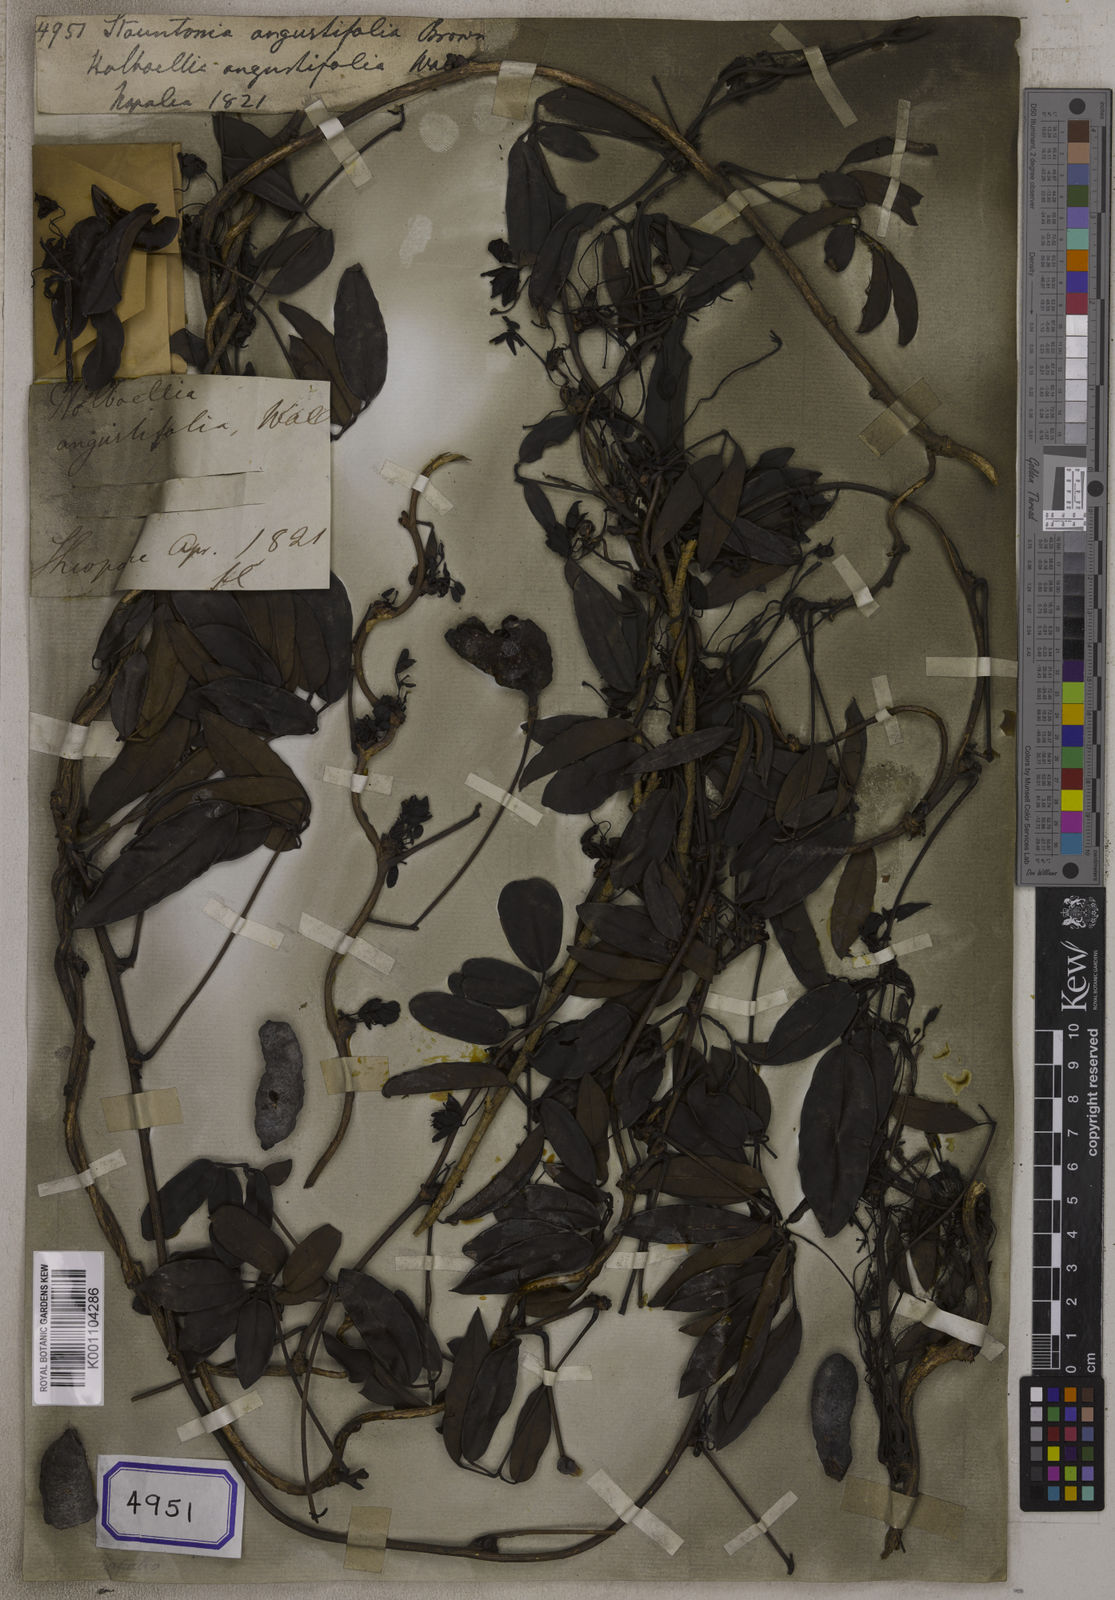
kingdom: Plantae
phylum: Tracheophyta
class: Magnoliopsida
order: Ranunculales
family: Lardizabalaceae
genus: Stauntonia
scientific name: Stauntonia angustifolia
